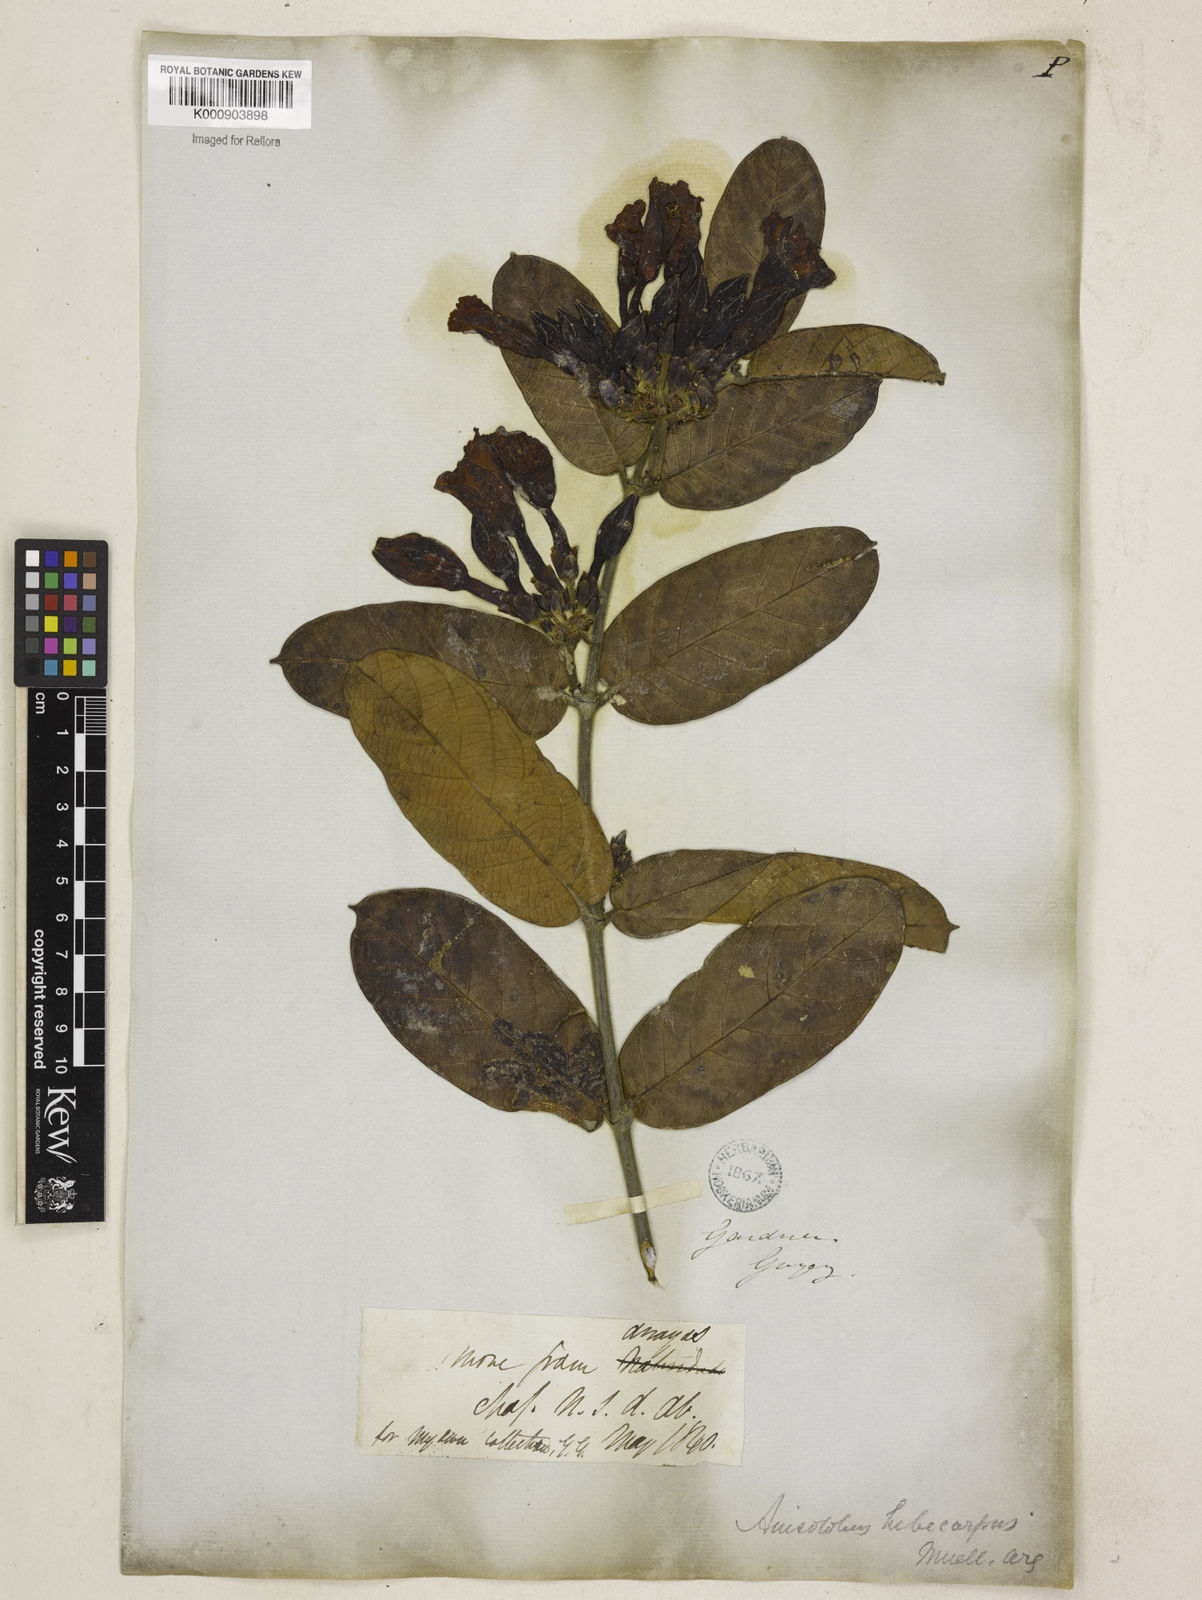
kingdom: Plantae
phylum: Tracheophyta
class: Magnoliopsida
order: Gentianales
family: Apocynaceae
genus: Odontadenia
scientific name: Odontadenia lutea
